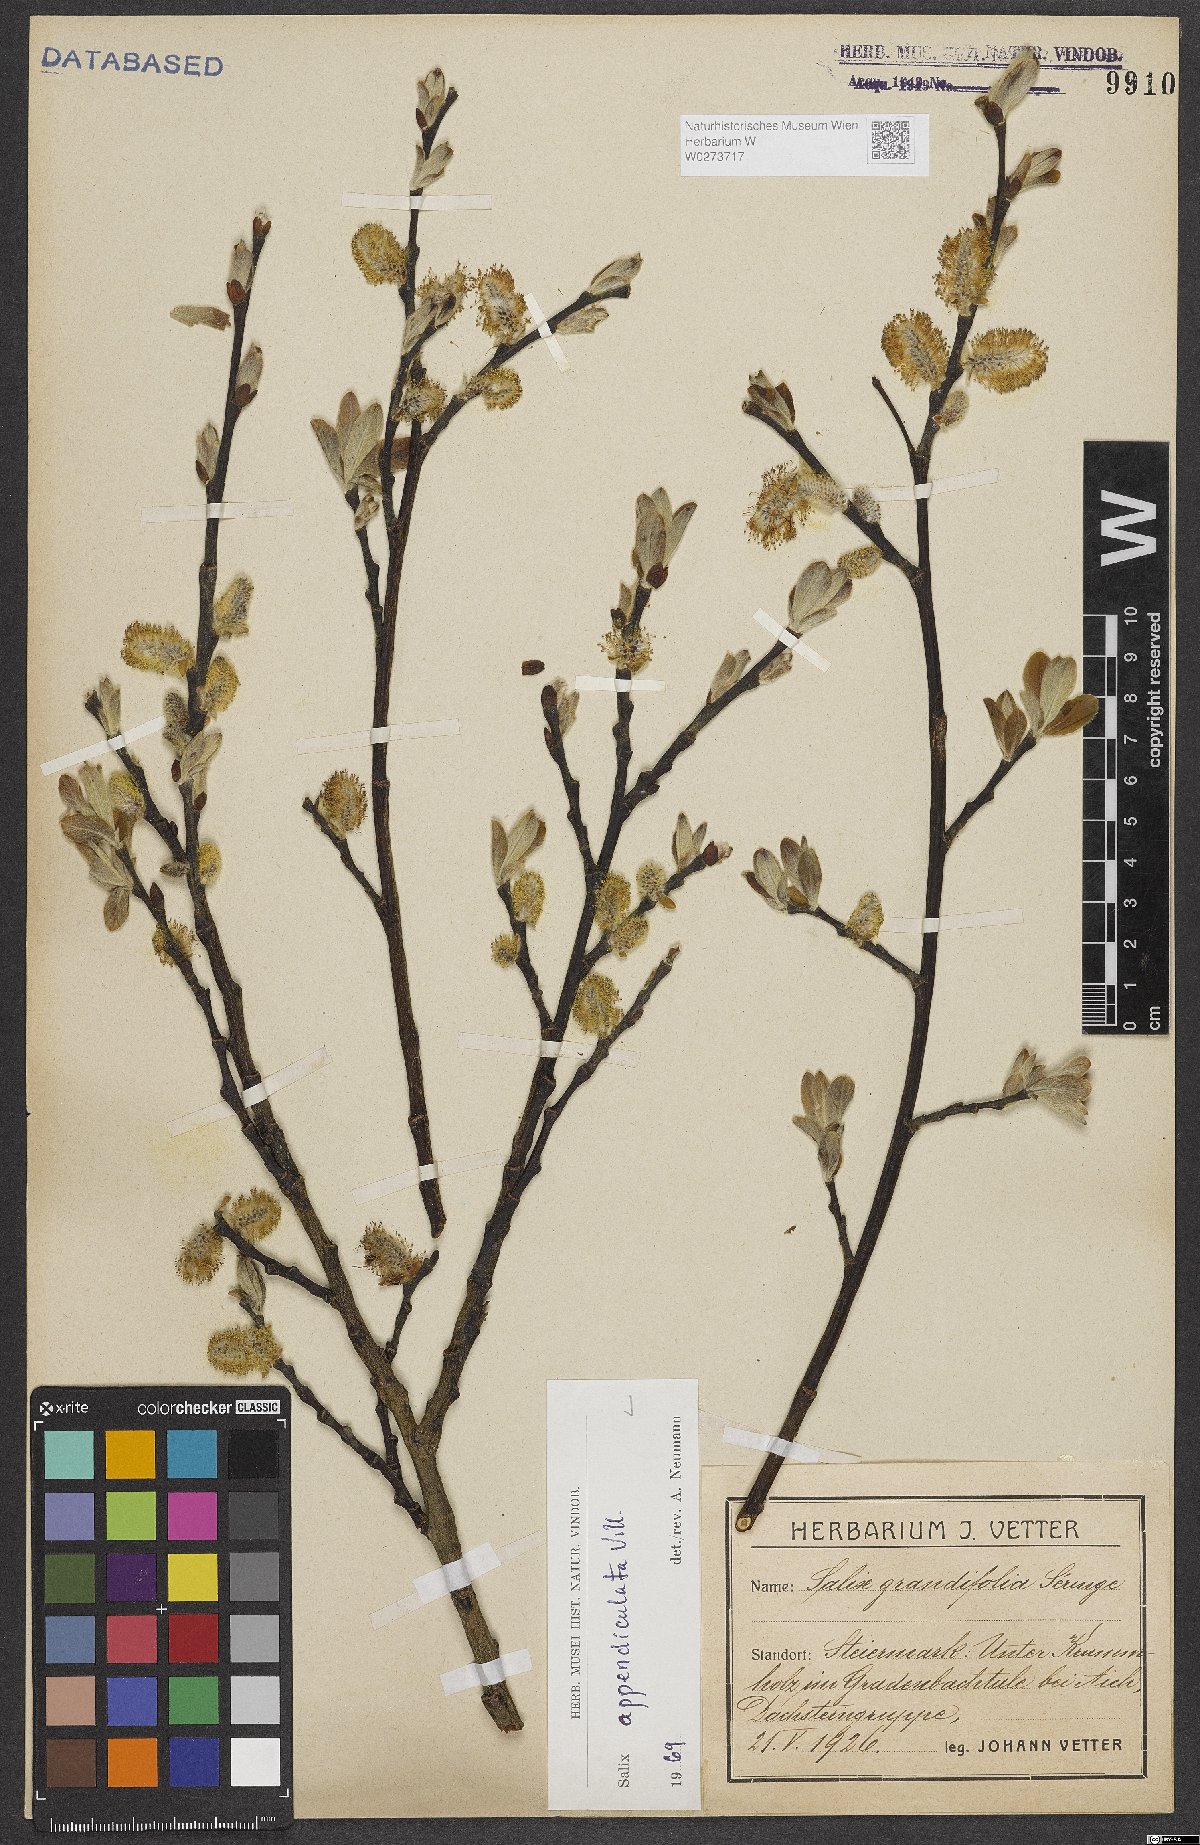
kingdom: Plantae
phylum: Tracheophyta
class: Magnoliopsida
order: Malpighiales
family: Salicaceae
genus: Salix
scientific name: Salix appendiculata
